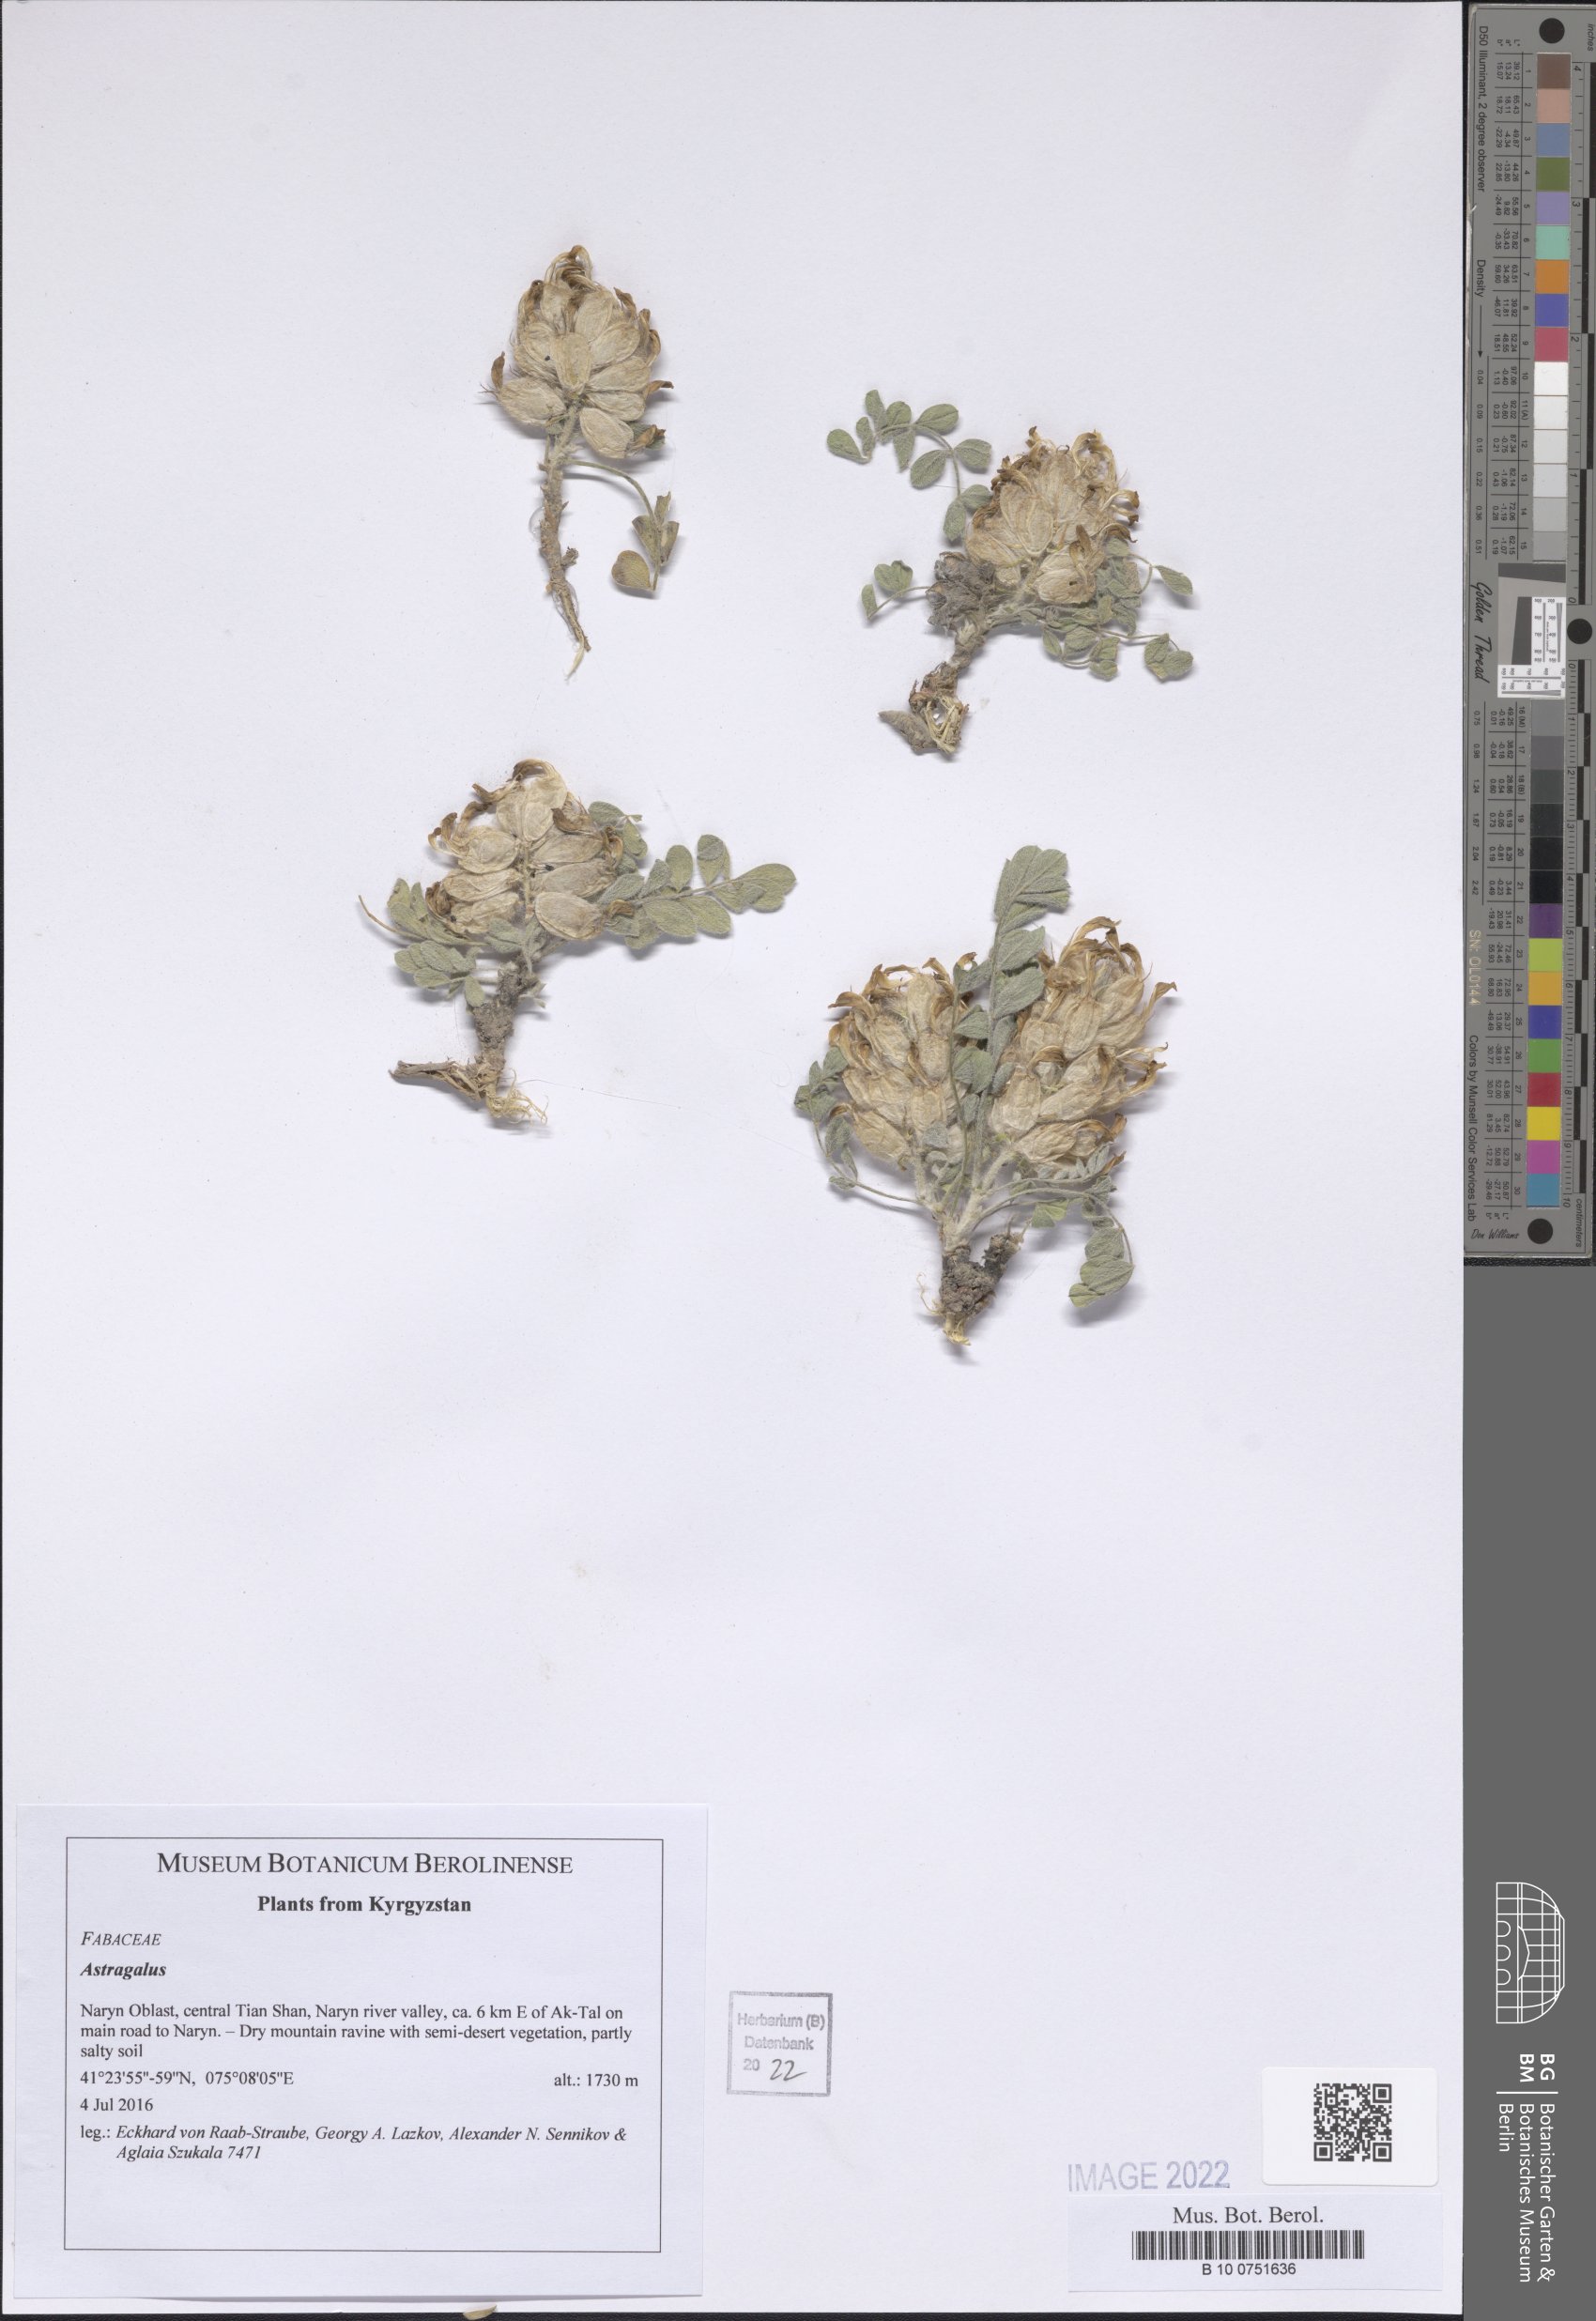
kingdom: Plantae
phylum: Tracheophyta
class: Magnoliopsida
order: Fabales
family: Fabaceae
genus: Astragalus
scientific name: Astragalus
